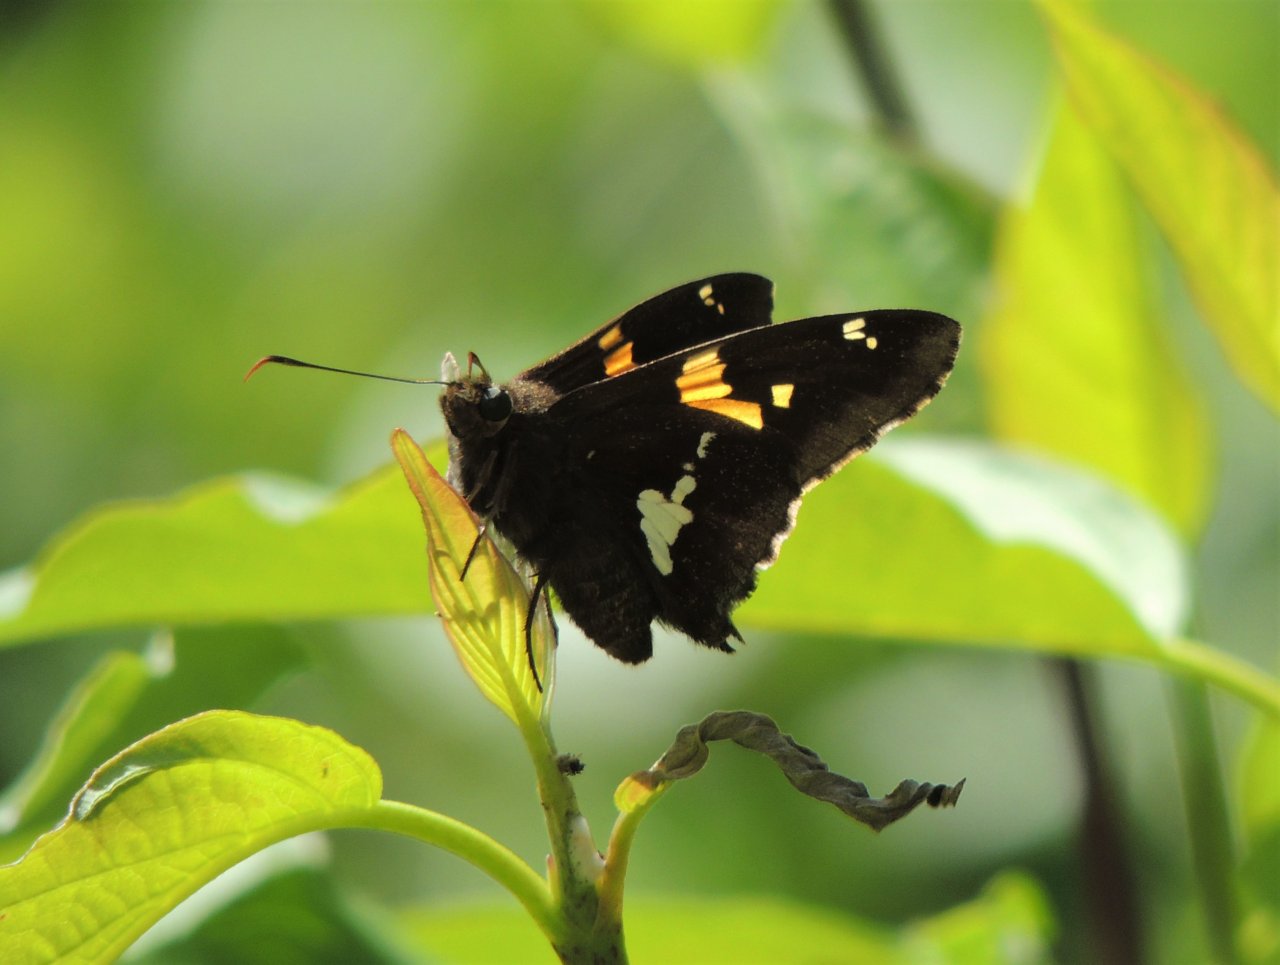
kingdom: Animalia
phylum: Arthropoda
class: Insecta
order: Lepidoptera
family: Hesperiidae
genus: Epargyreus
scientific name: Epargyreus clarus
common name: Silver-spotted Skipper
